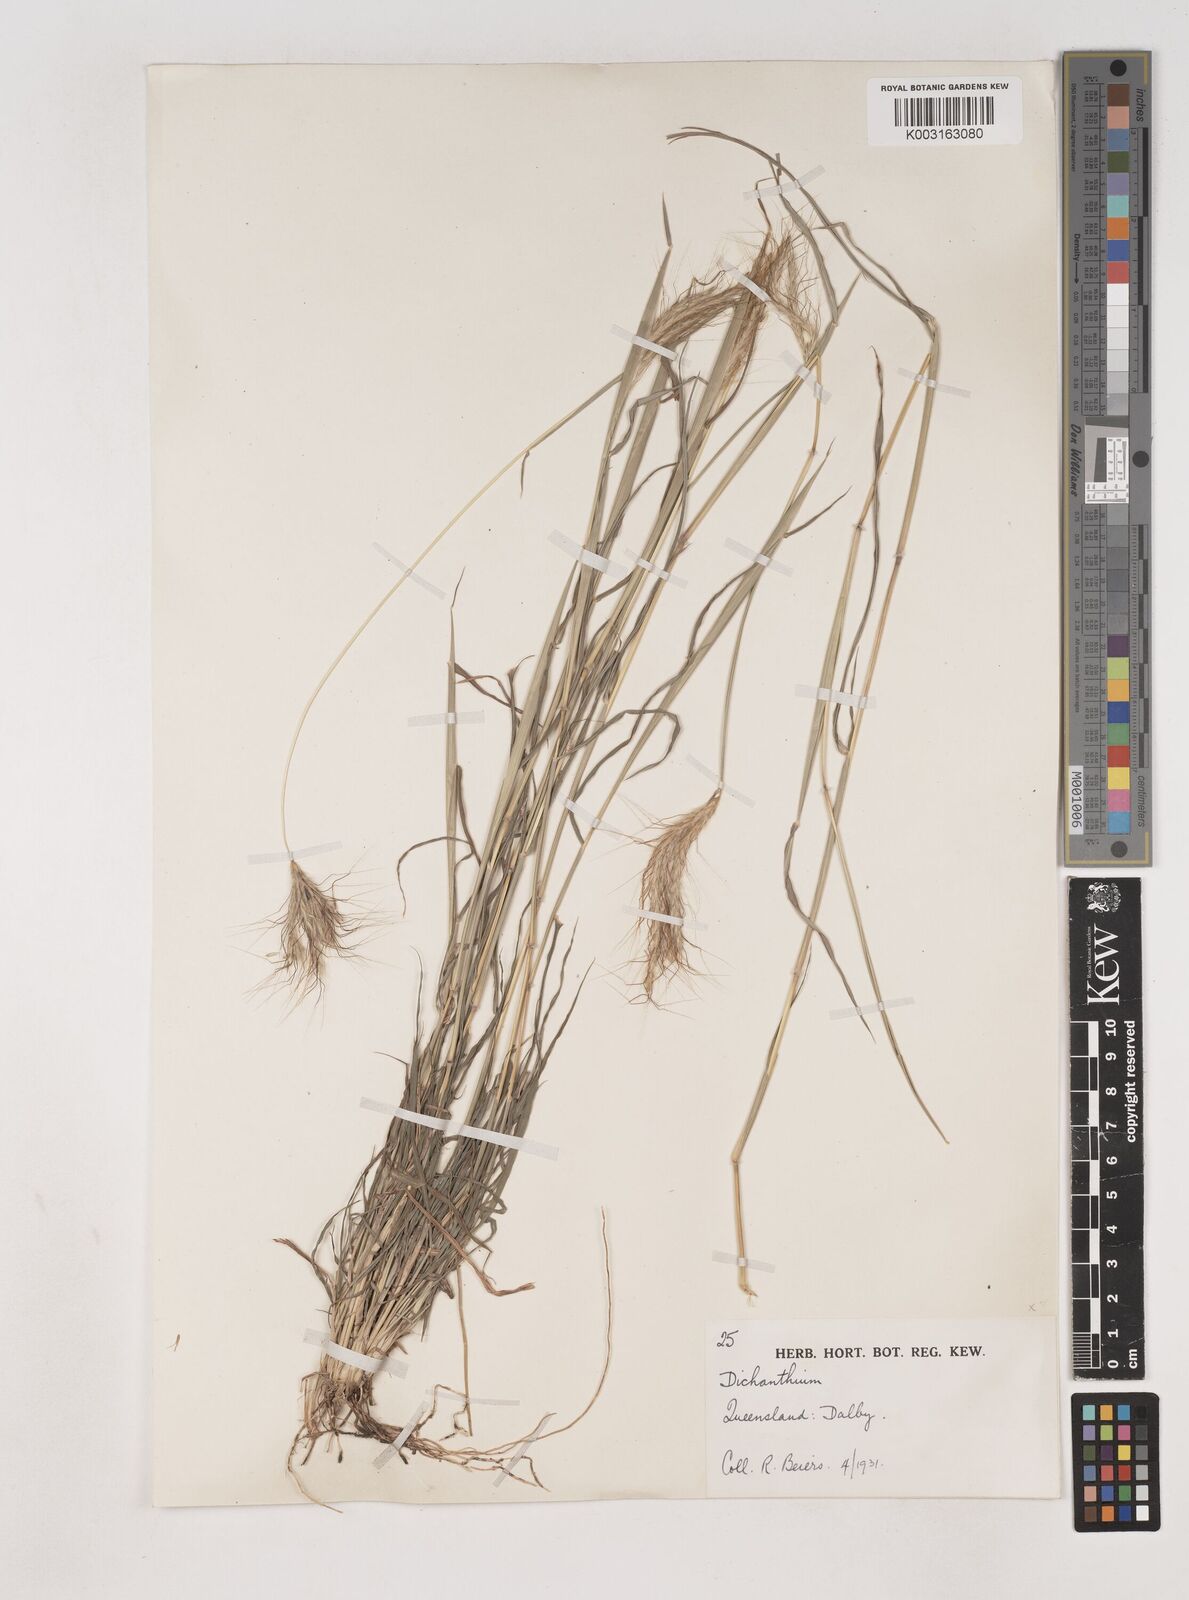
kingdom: Plantae
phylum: Tracheophyta
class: Liliopsida
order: Poales
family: Poaceae
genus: Dichanthium
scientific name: Dichanthium sericeum
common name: Silky bluestem
